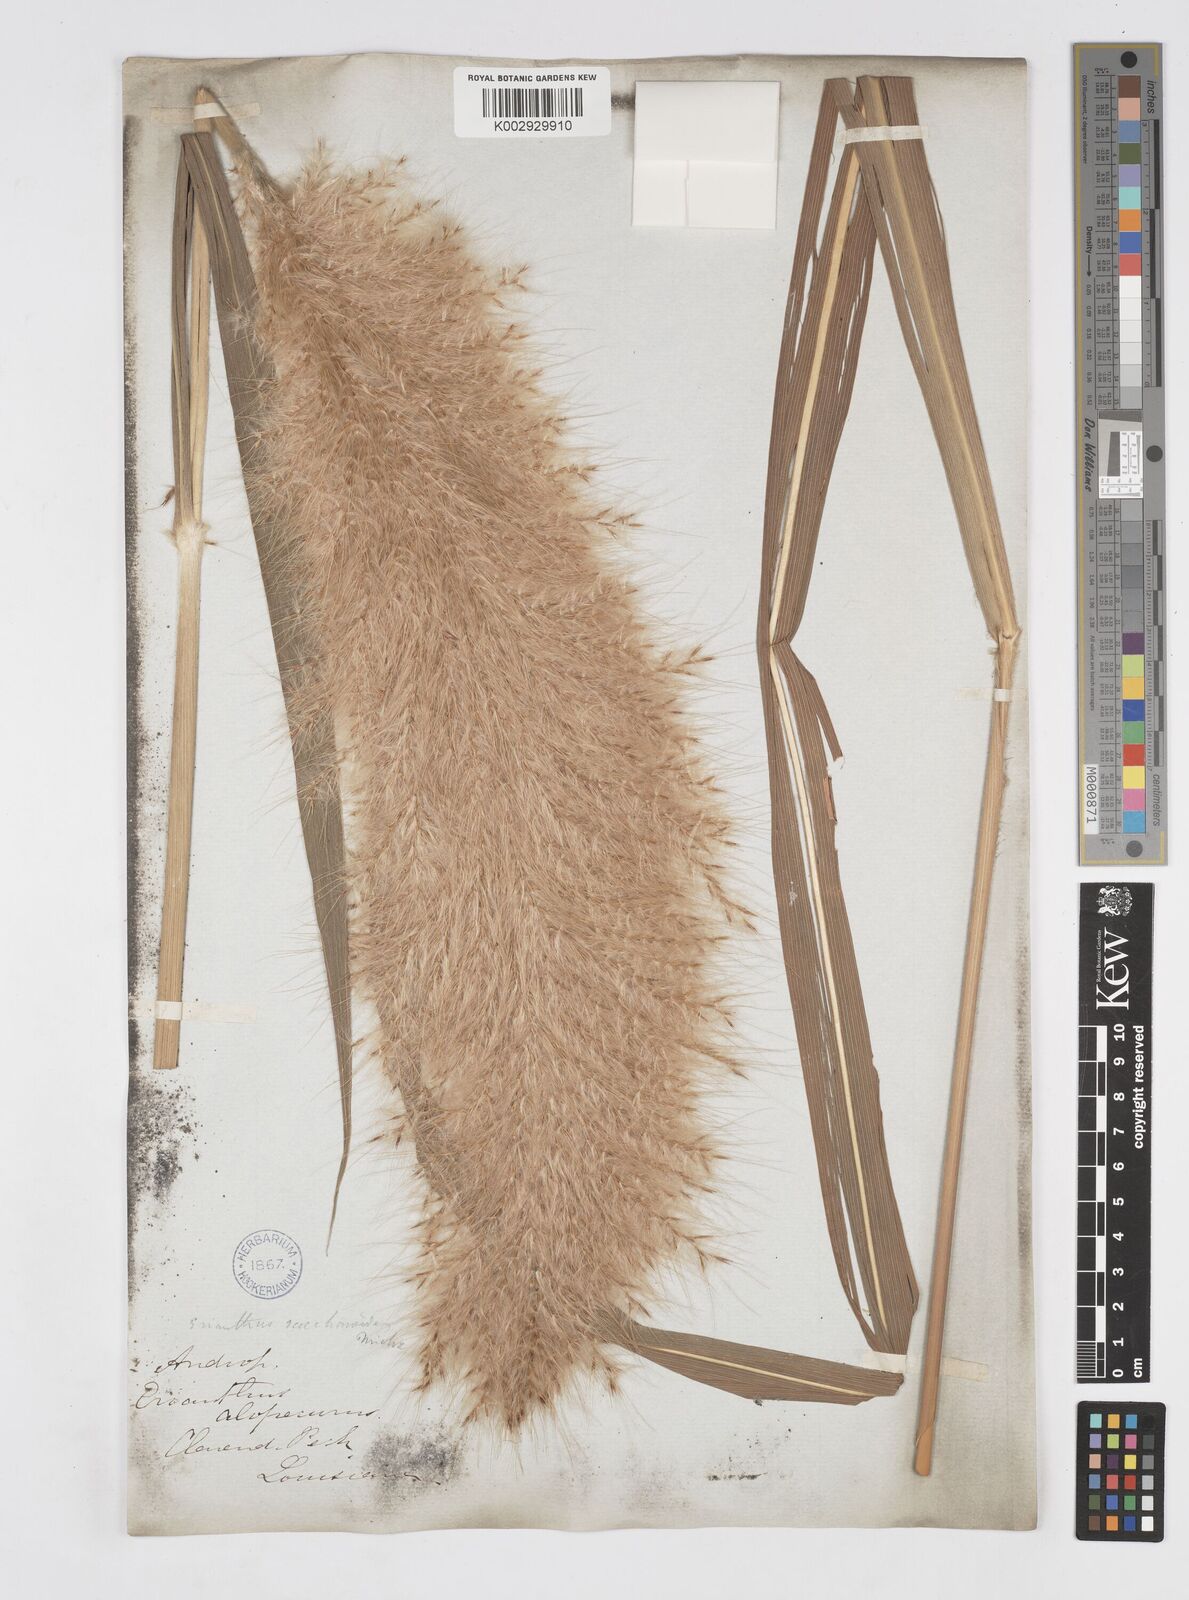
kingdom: Plantae
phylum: Tracheophyta
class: Liliopsida
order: Poales
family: Poaceae
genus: Saccharum
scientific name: Saccharum
